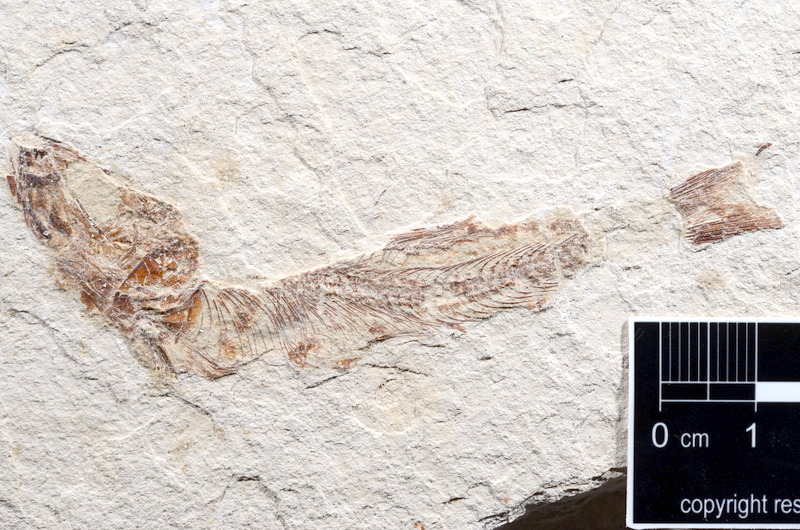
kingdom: Animalia
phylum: Chordata
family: Ascalaboidae
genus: Tharsis
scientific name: Tharsis dubius
